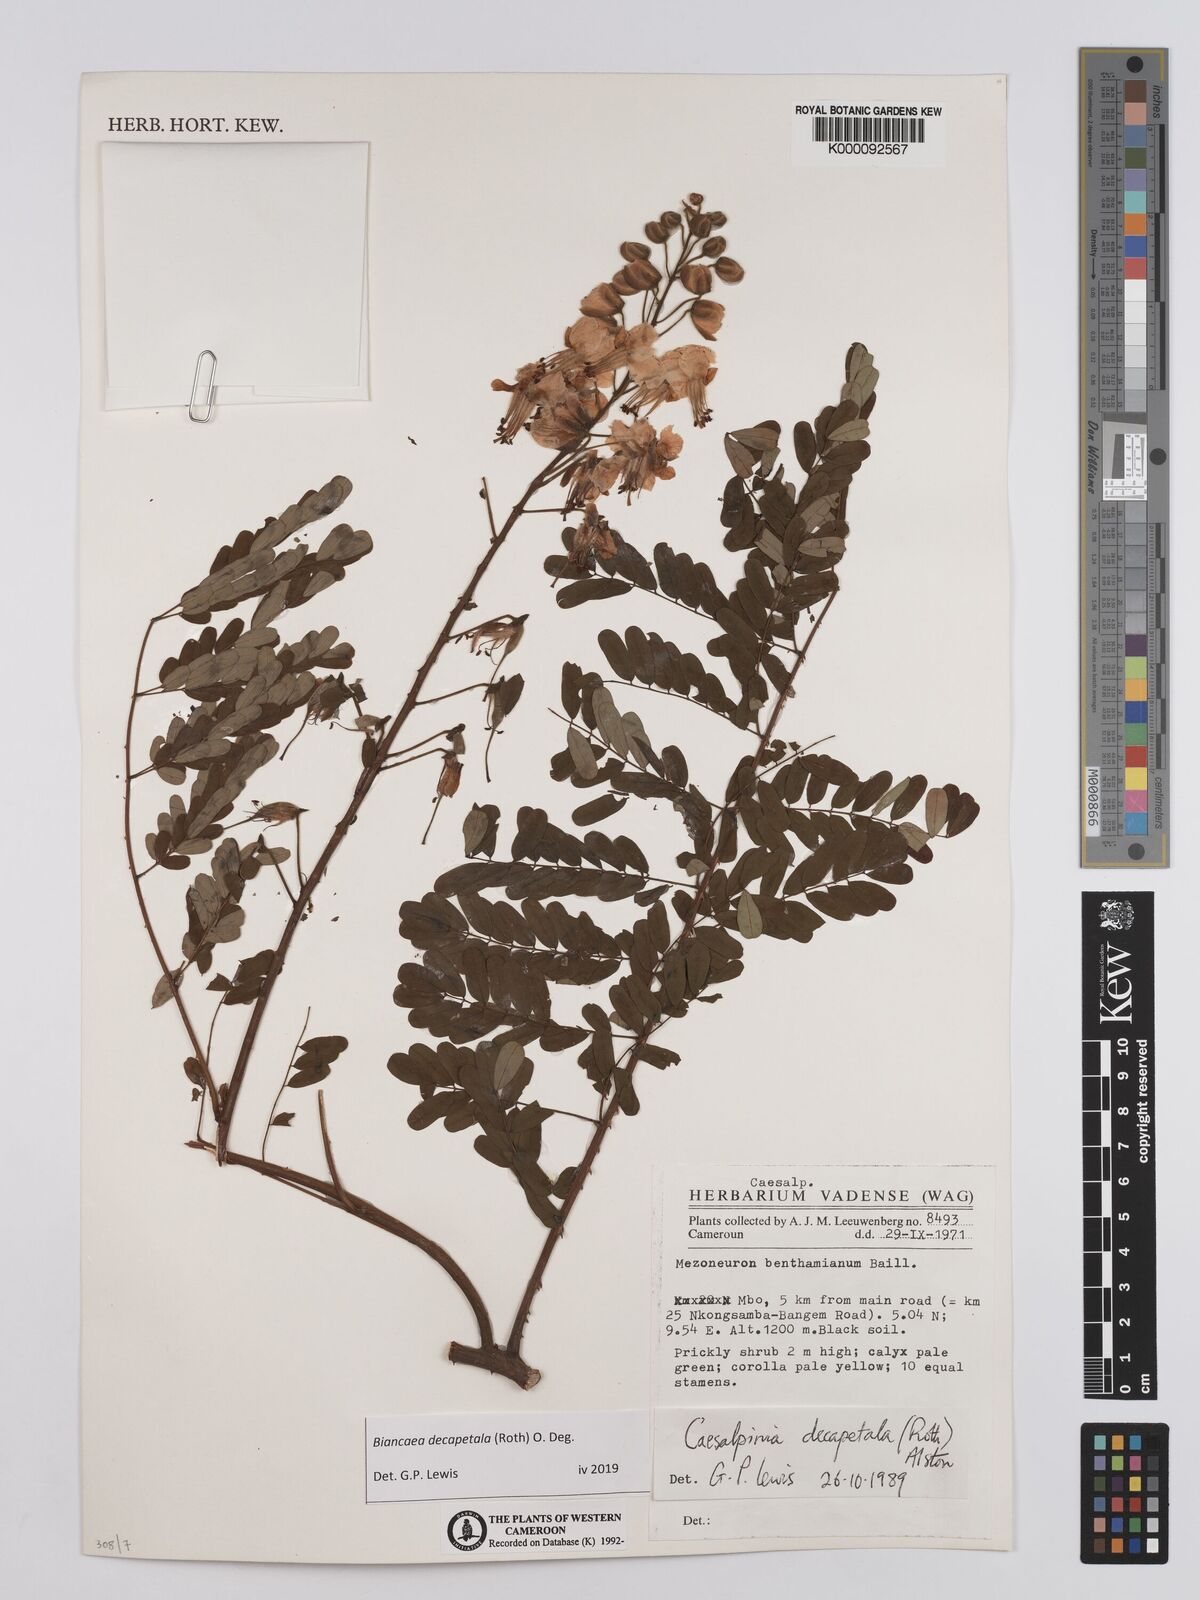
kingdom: Plantae
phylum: Tracheophyta
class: Magnoliopsida
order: Fabales
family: Fabaceae
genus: Biancaea
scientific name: Biancaea decapetala
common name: Cat's claw
